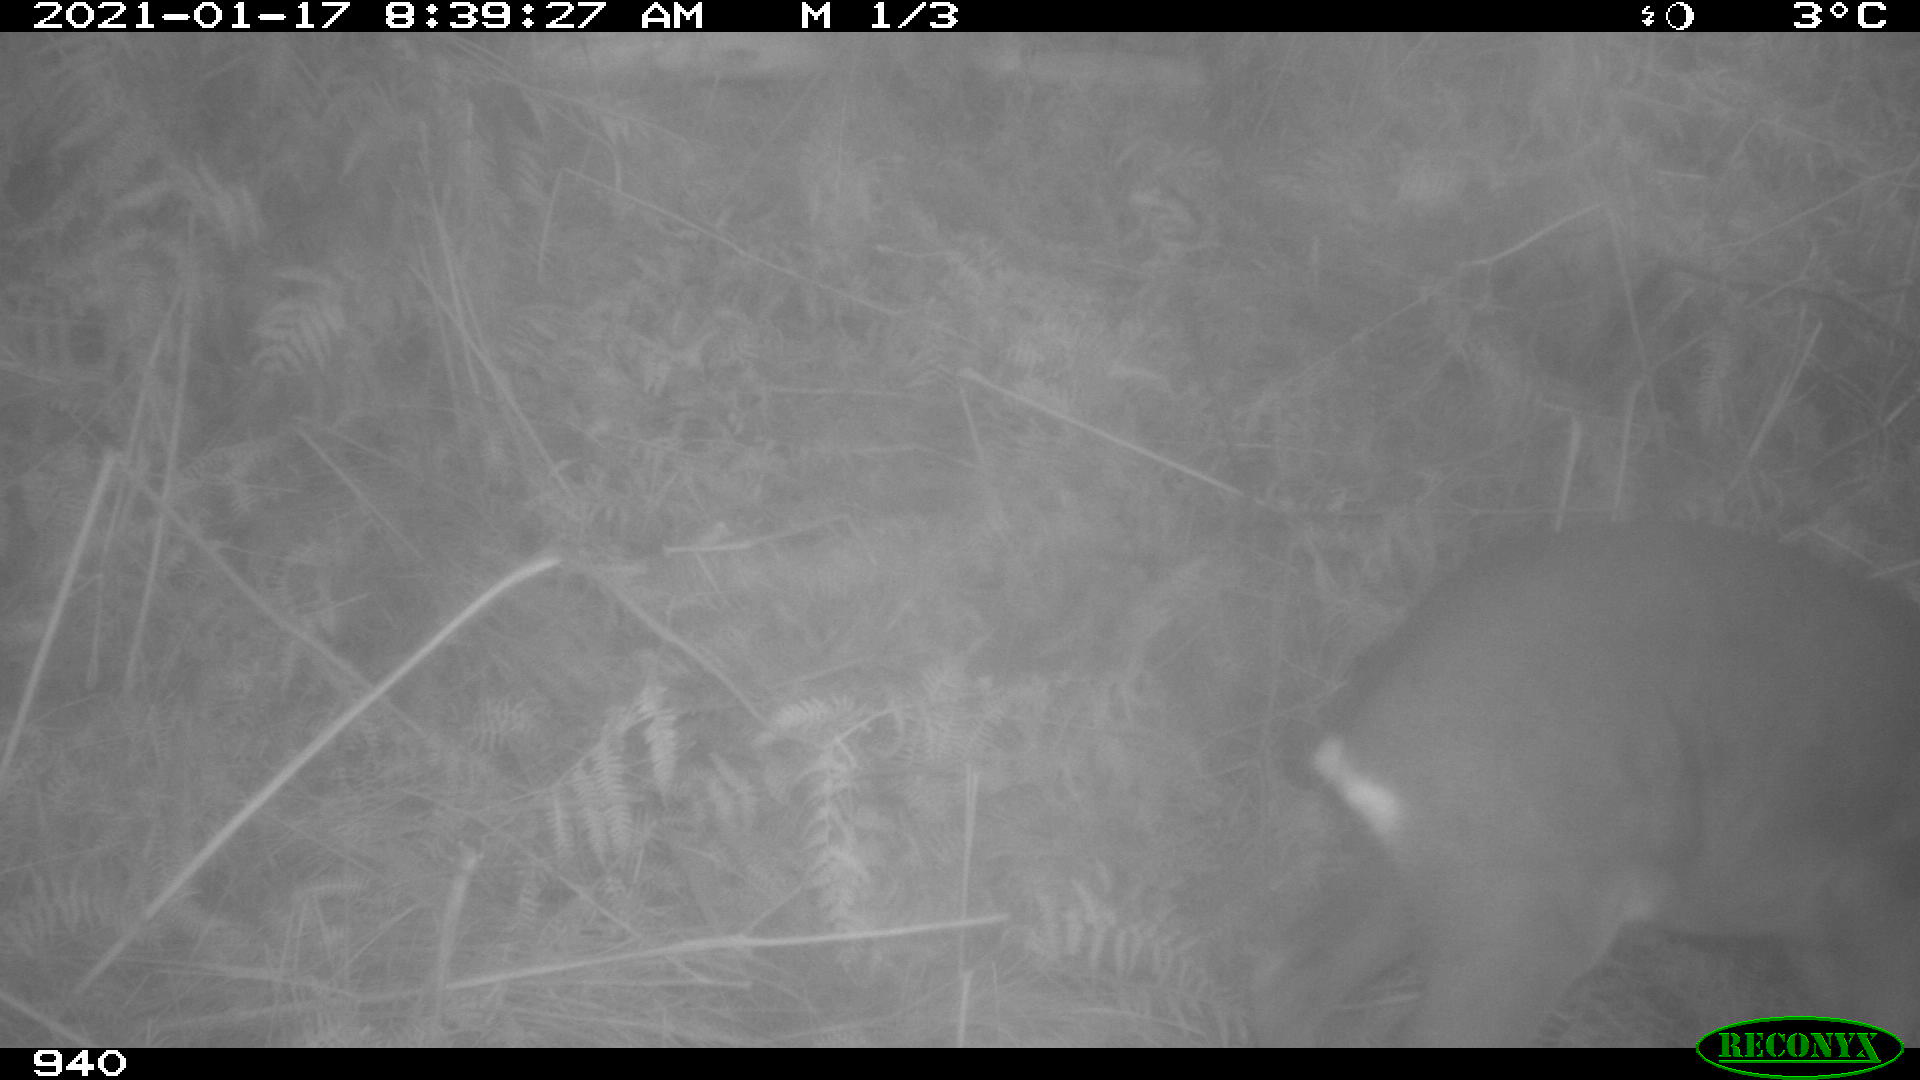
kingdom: Animalia
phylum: Chordata
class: Mammalia
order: Artiodactyla
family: Cervidae
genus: Capreolus
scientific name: Capreolus capreolus
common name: Western roe deer
